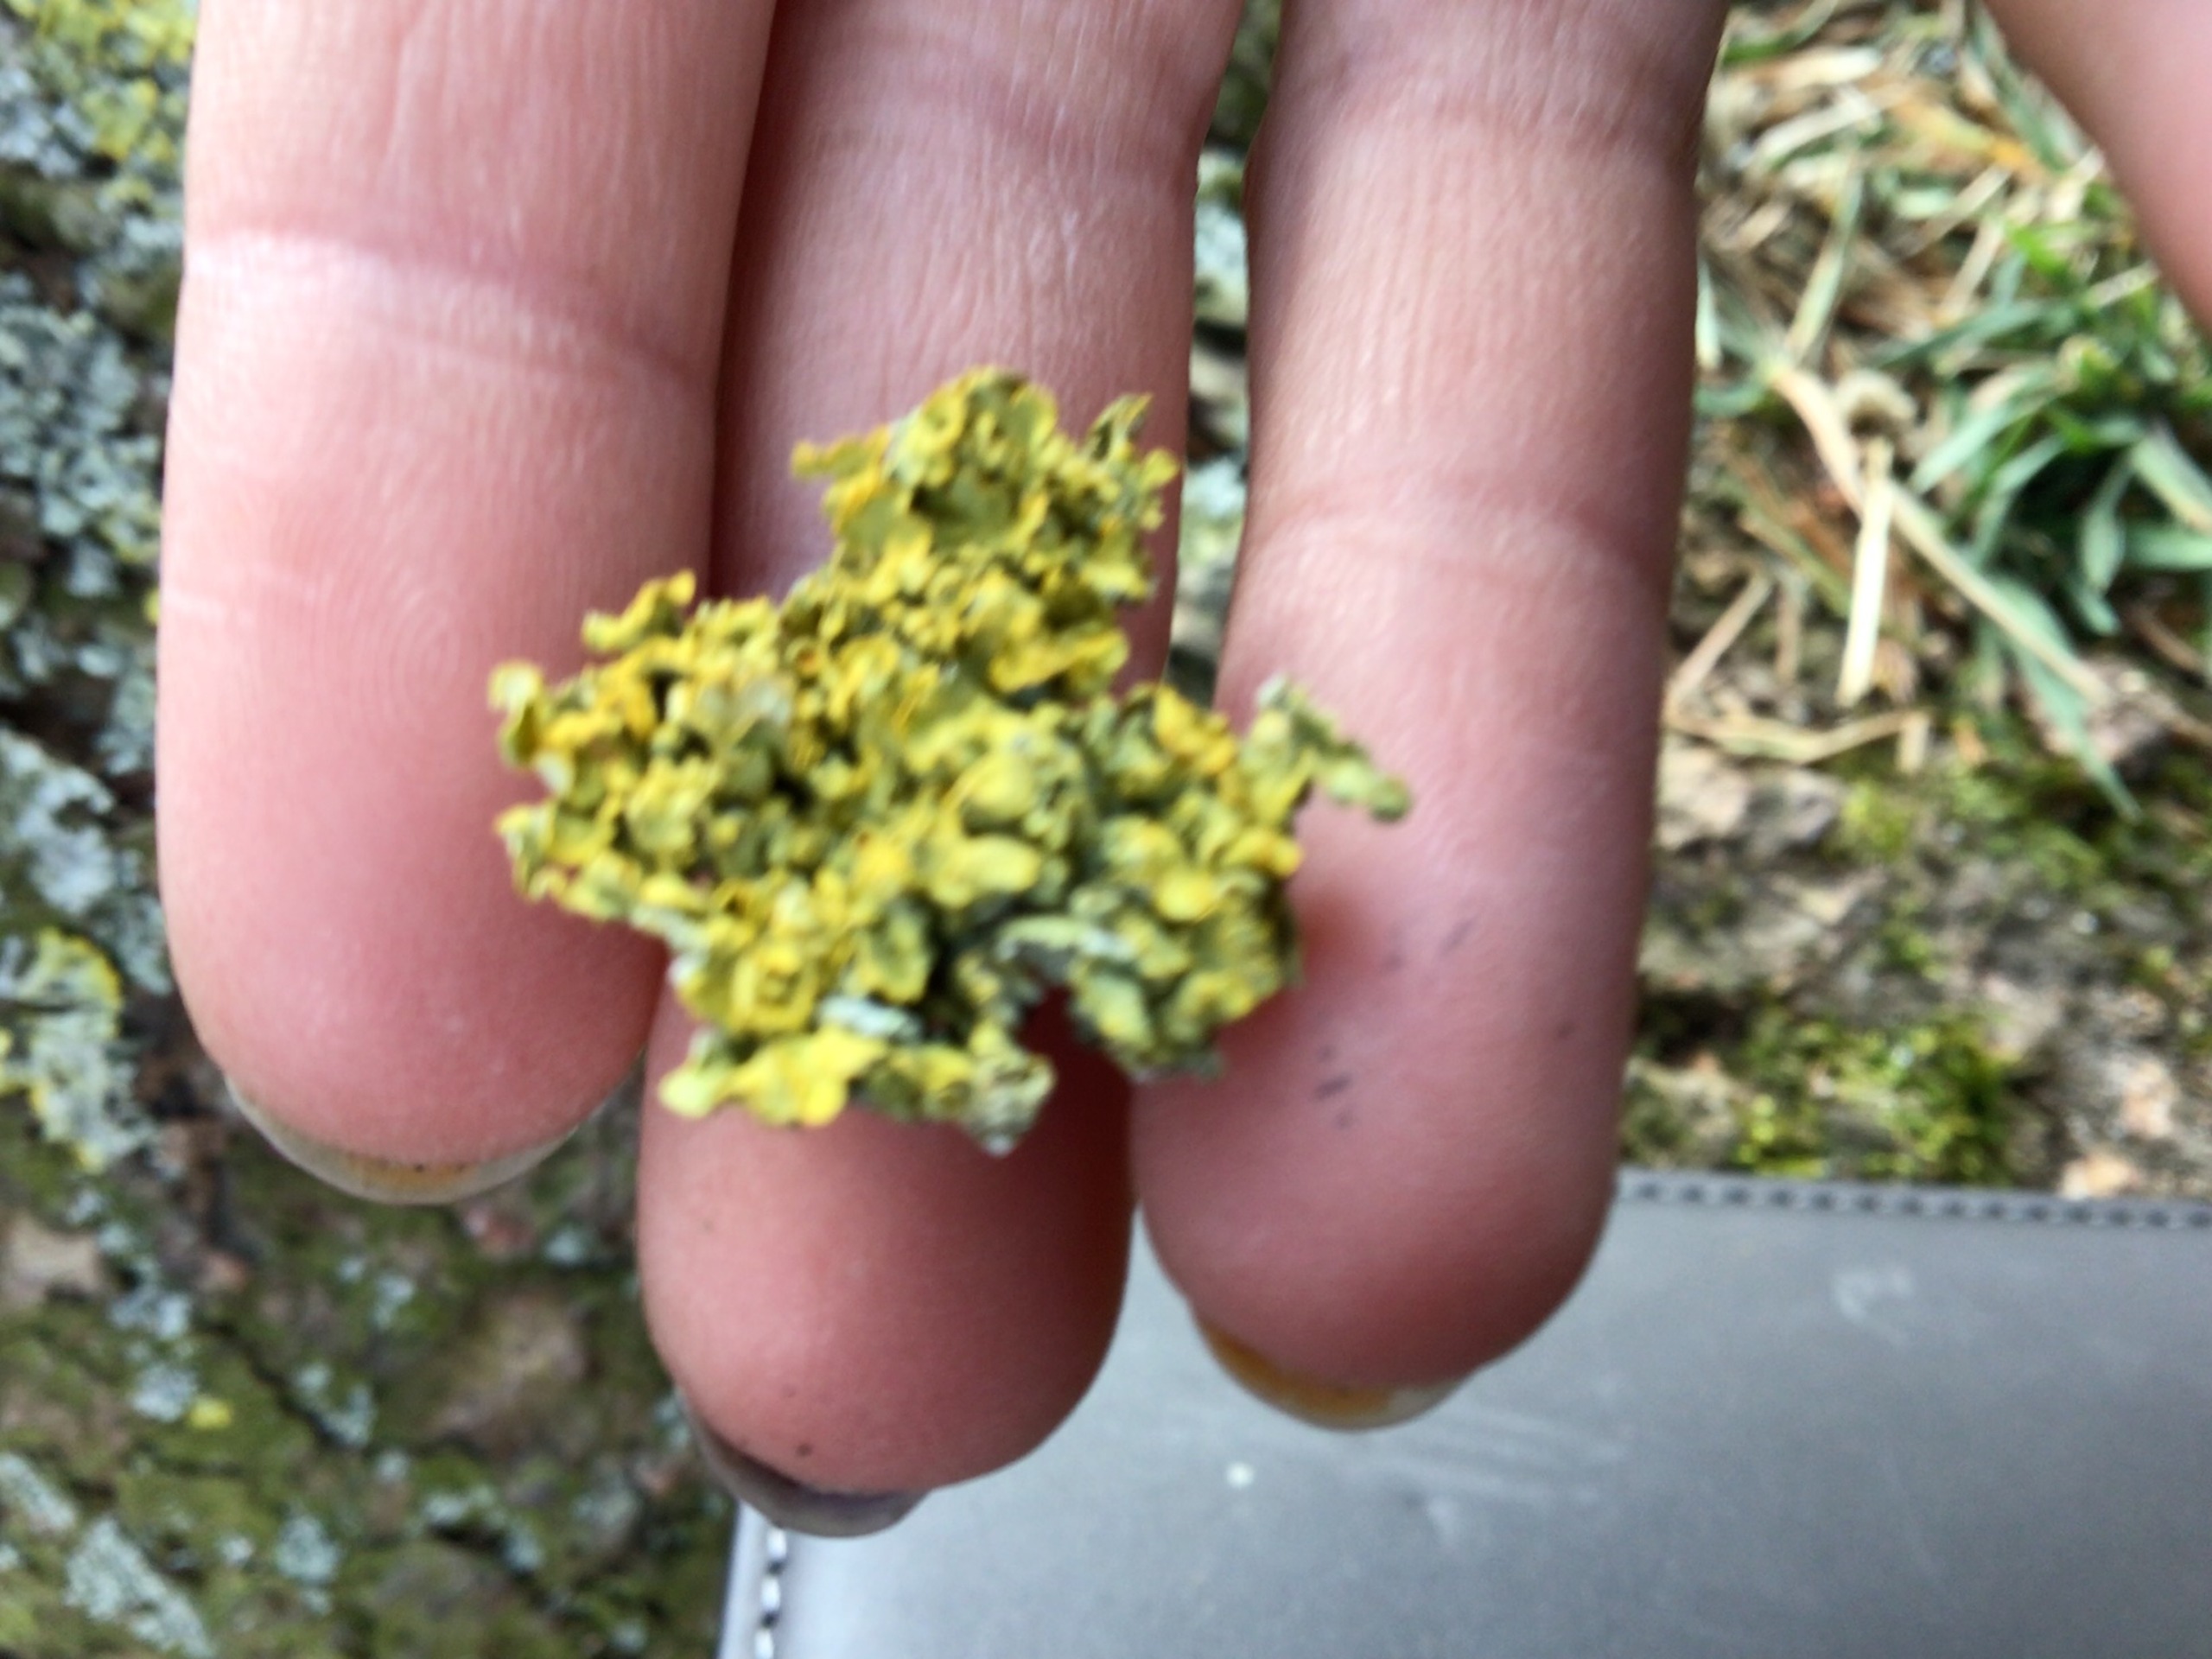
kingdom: Fungi
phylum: Ascomycota
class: Lecanoromycetes
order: Teloschistales
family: Teloschistaceae
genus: Xanthoria
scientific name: Xanthoria parietina
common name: Almindelig væggelav
